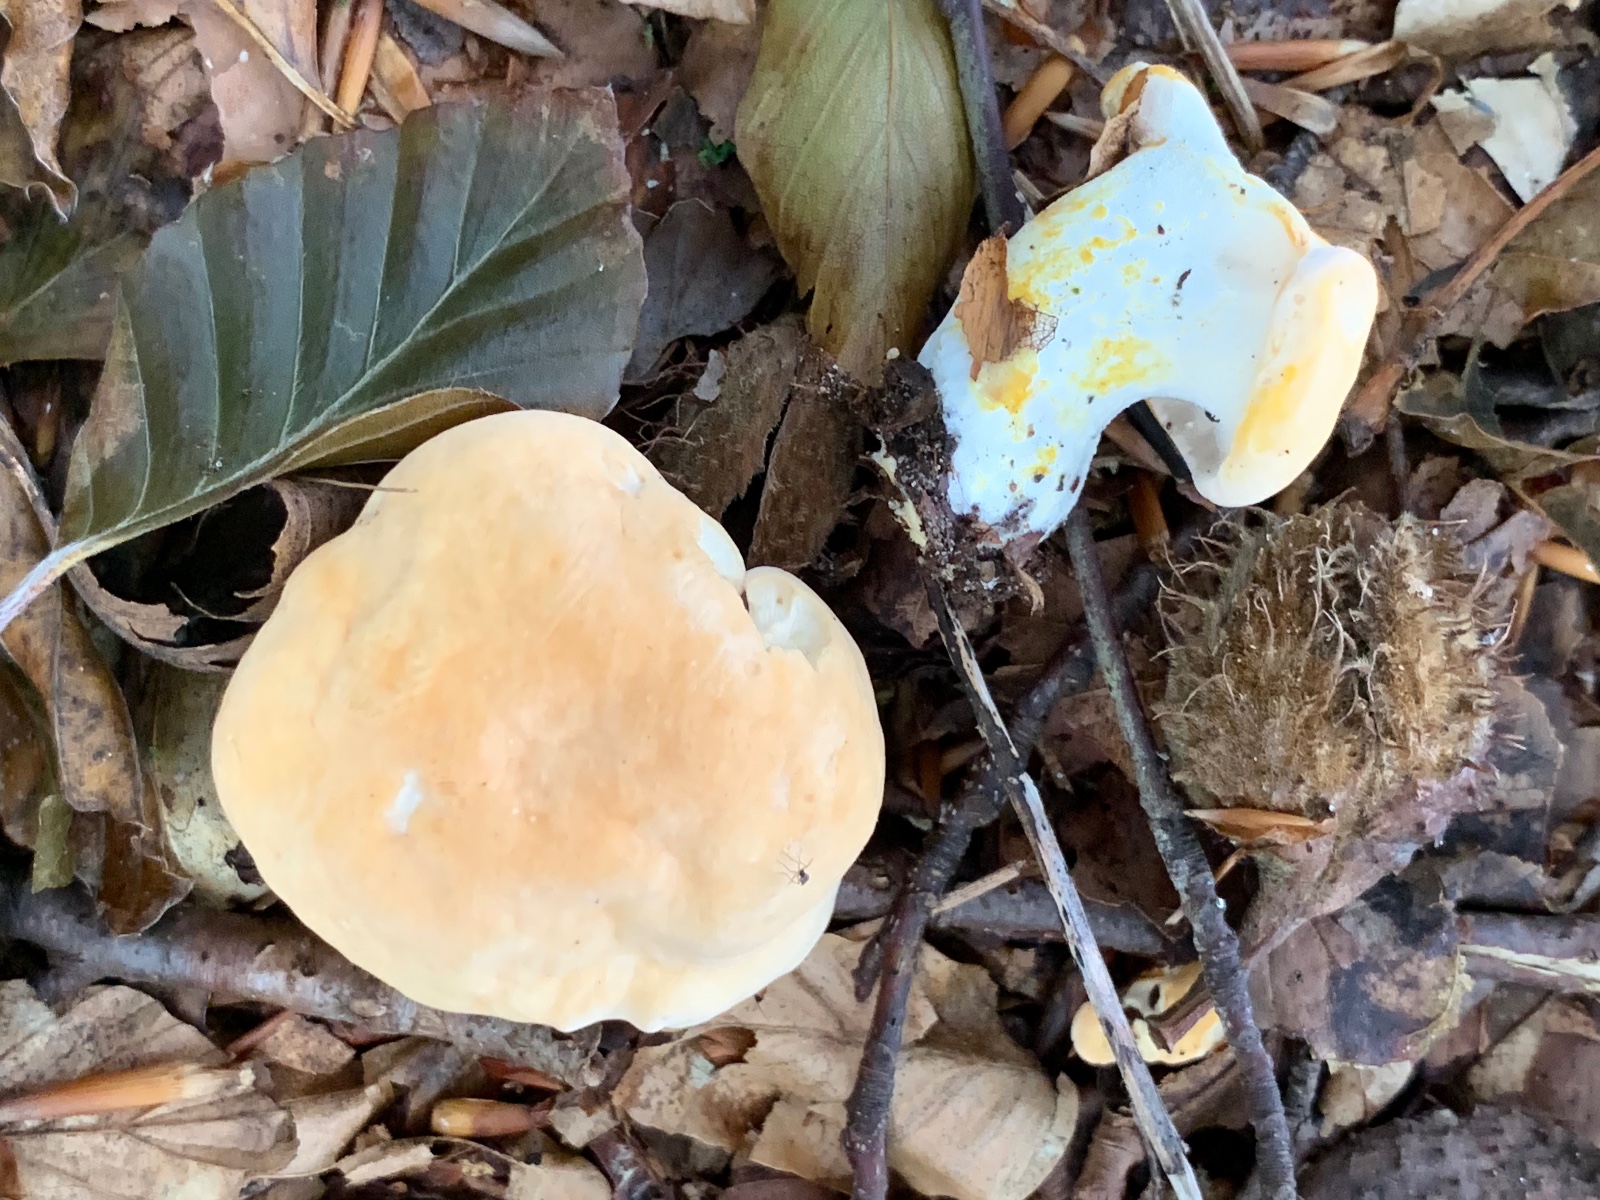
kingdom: Fungi
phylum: Basidiomycota
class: Agaricomycetes
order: Cantharellales
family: Hydnaceae
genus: Hydnum
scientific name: Hydnum
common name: pigsvamp
